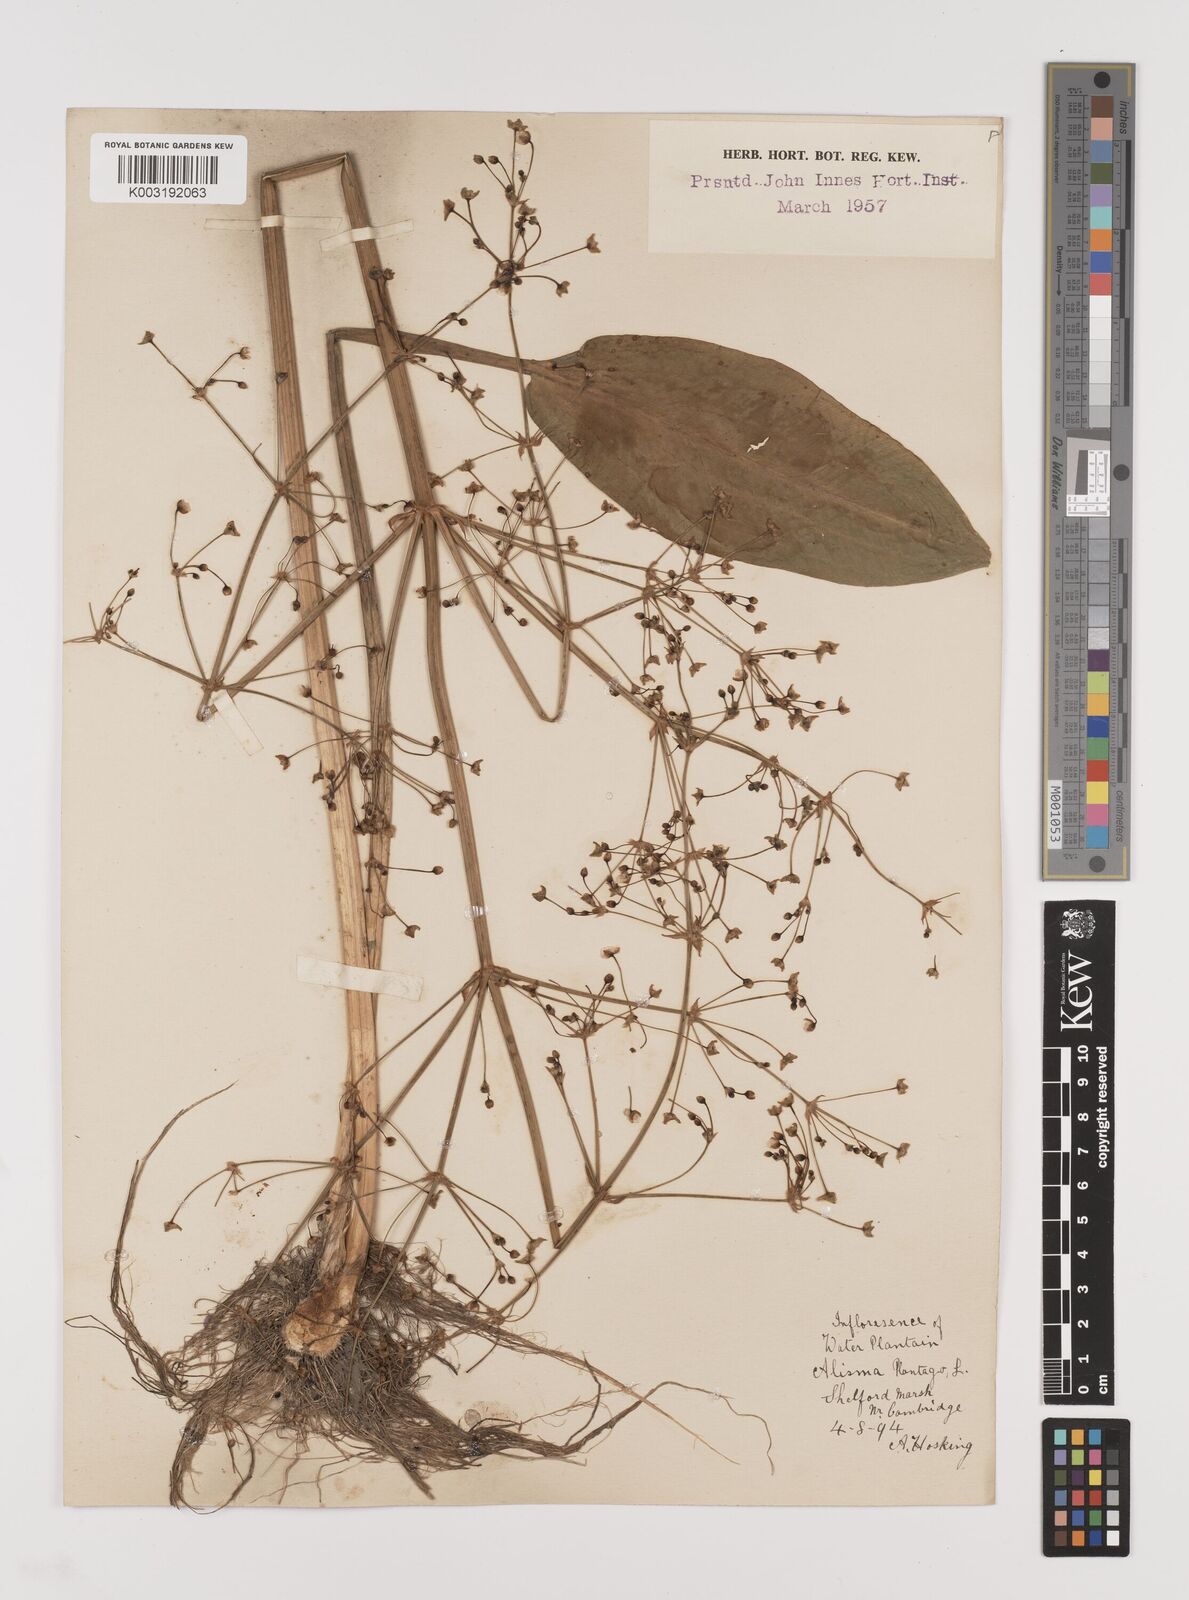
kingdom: Plantae
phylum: Tracheophyta
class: Liliopsida
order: Alismatales
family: Alismataceae
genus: Alisma
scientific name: Alisma plantago-aquatica
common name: Water-plantain
